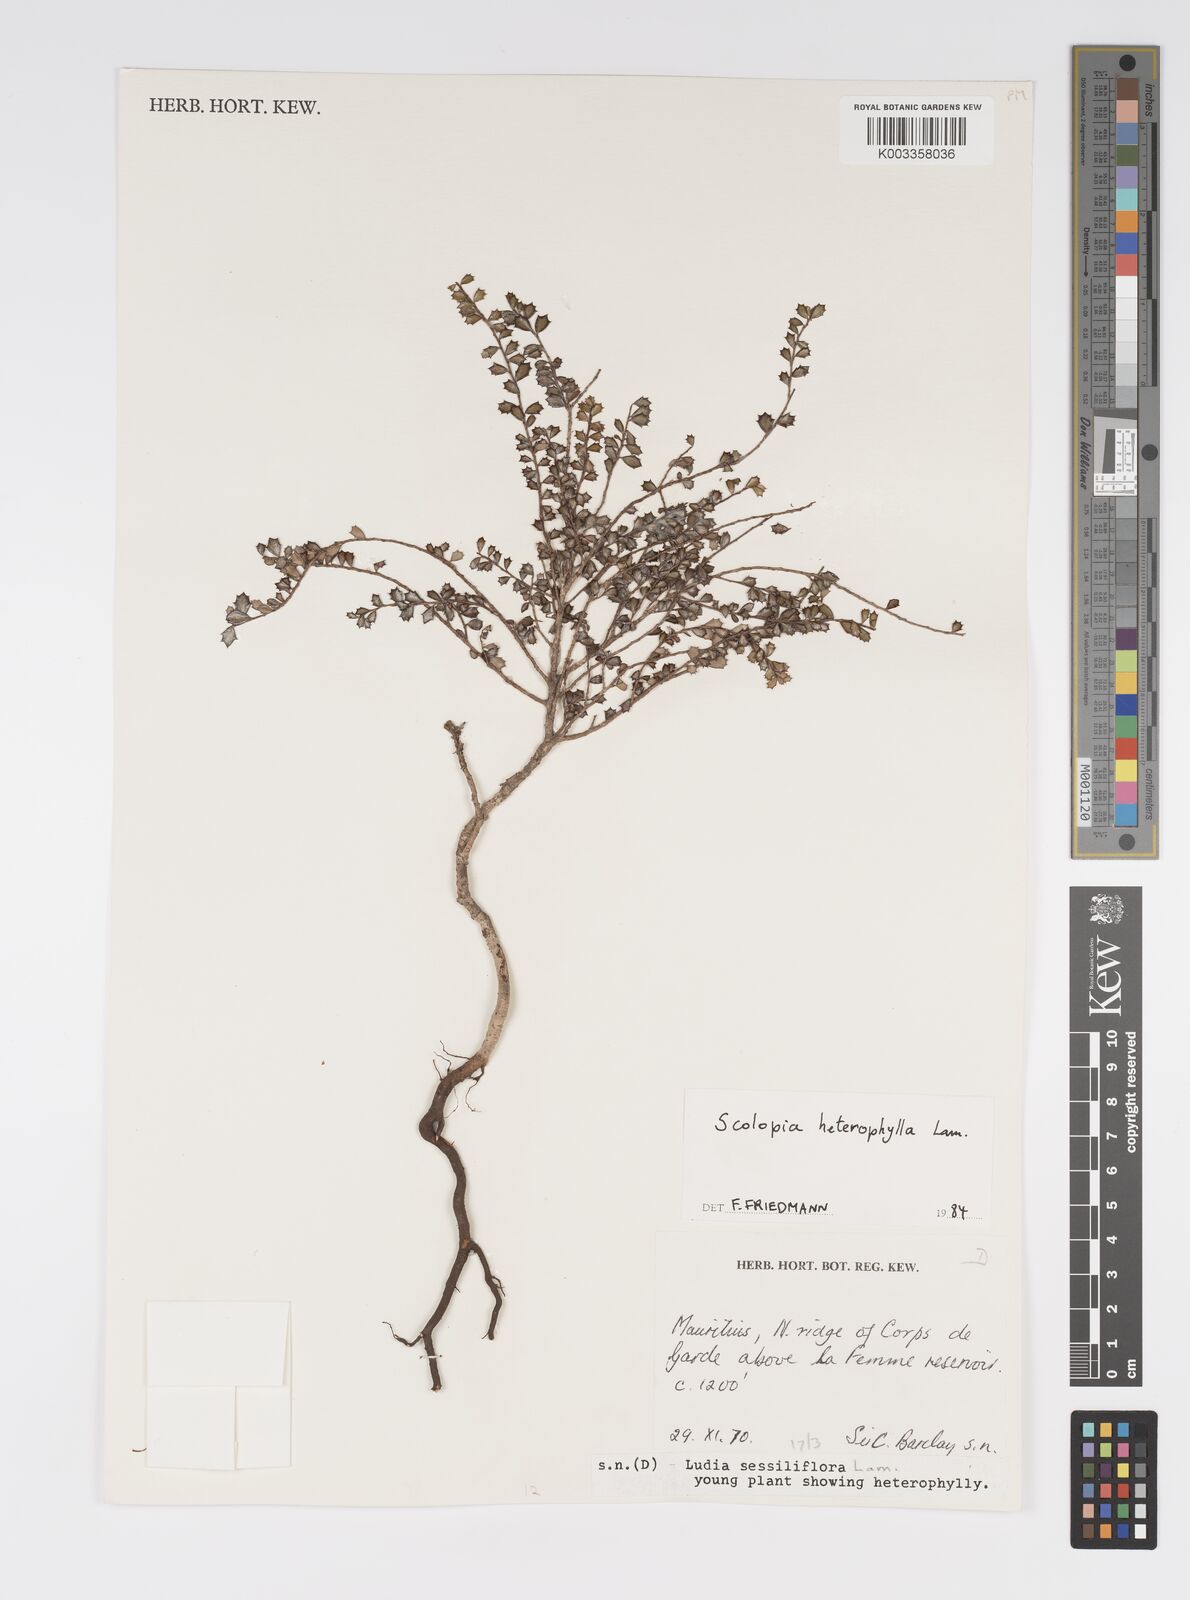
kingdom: Plantae
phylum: Tracheophyta
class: Magnoliopsida
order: Malpighiales
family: Salicaceae
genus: Scolopia
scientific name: Scolopia heterophylla
